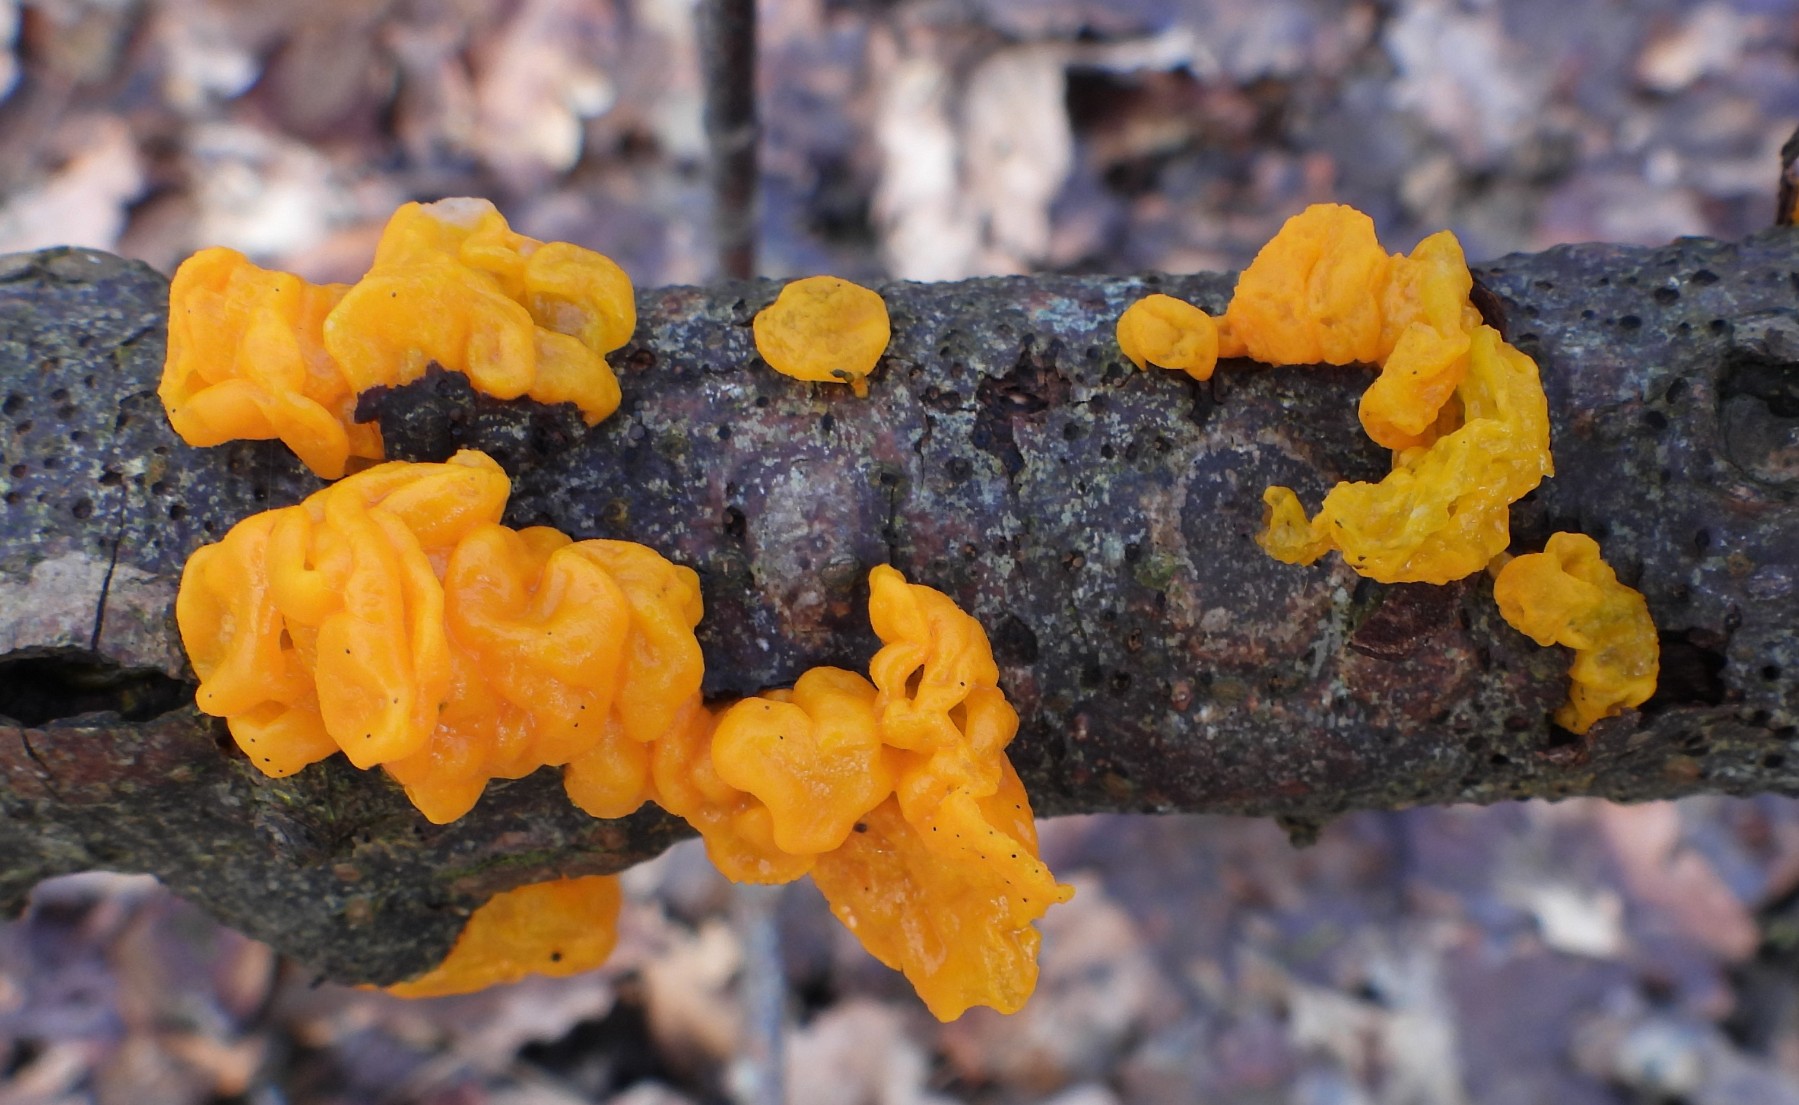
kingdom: Fungi
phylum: Basidiomycota
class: Tremellomycetes
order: Tremellales
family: Tremellaceae
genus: Tremella
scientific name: Tremella mesenterica
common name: gul bævresvamp
